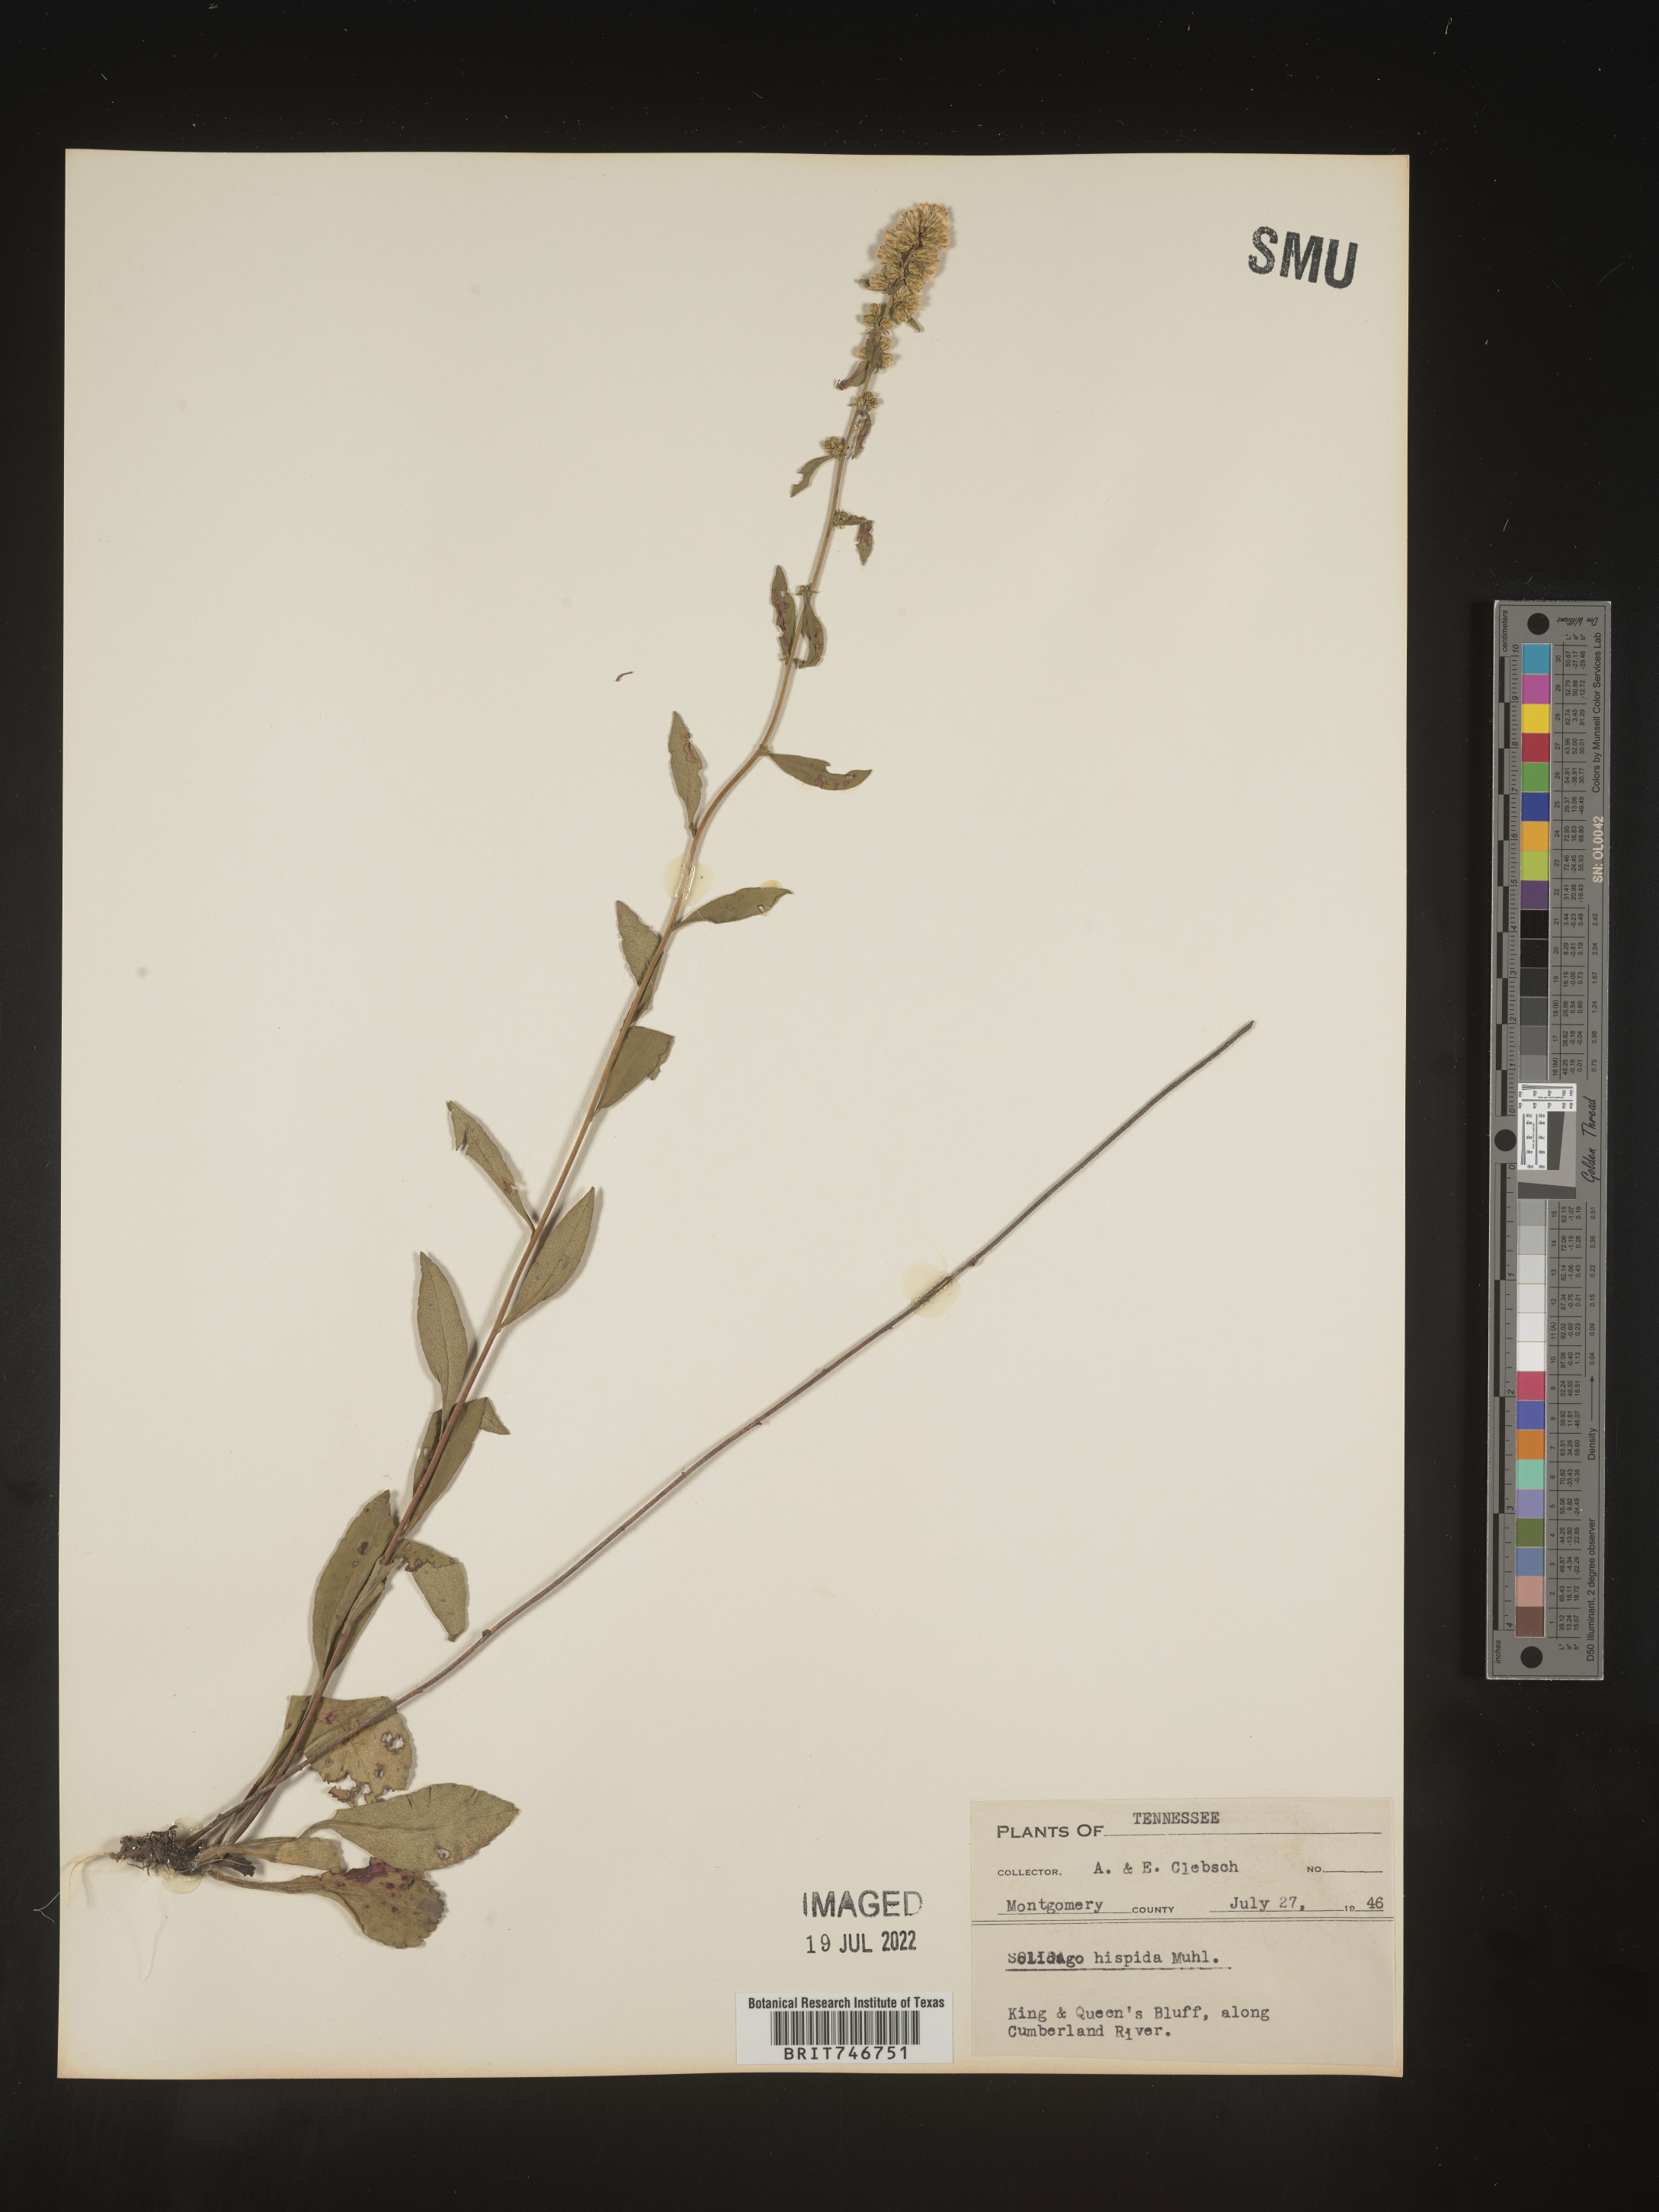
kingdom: Plantae
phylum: Tracheophyta
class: Magnoliopsida
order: Asterales
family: Asteraceae
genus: Solidago
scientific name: Solidago hispida
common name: Hairy goldenrod
